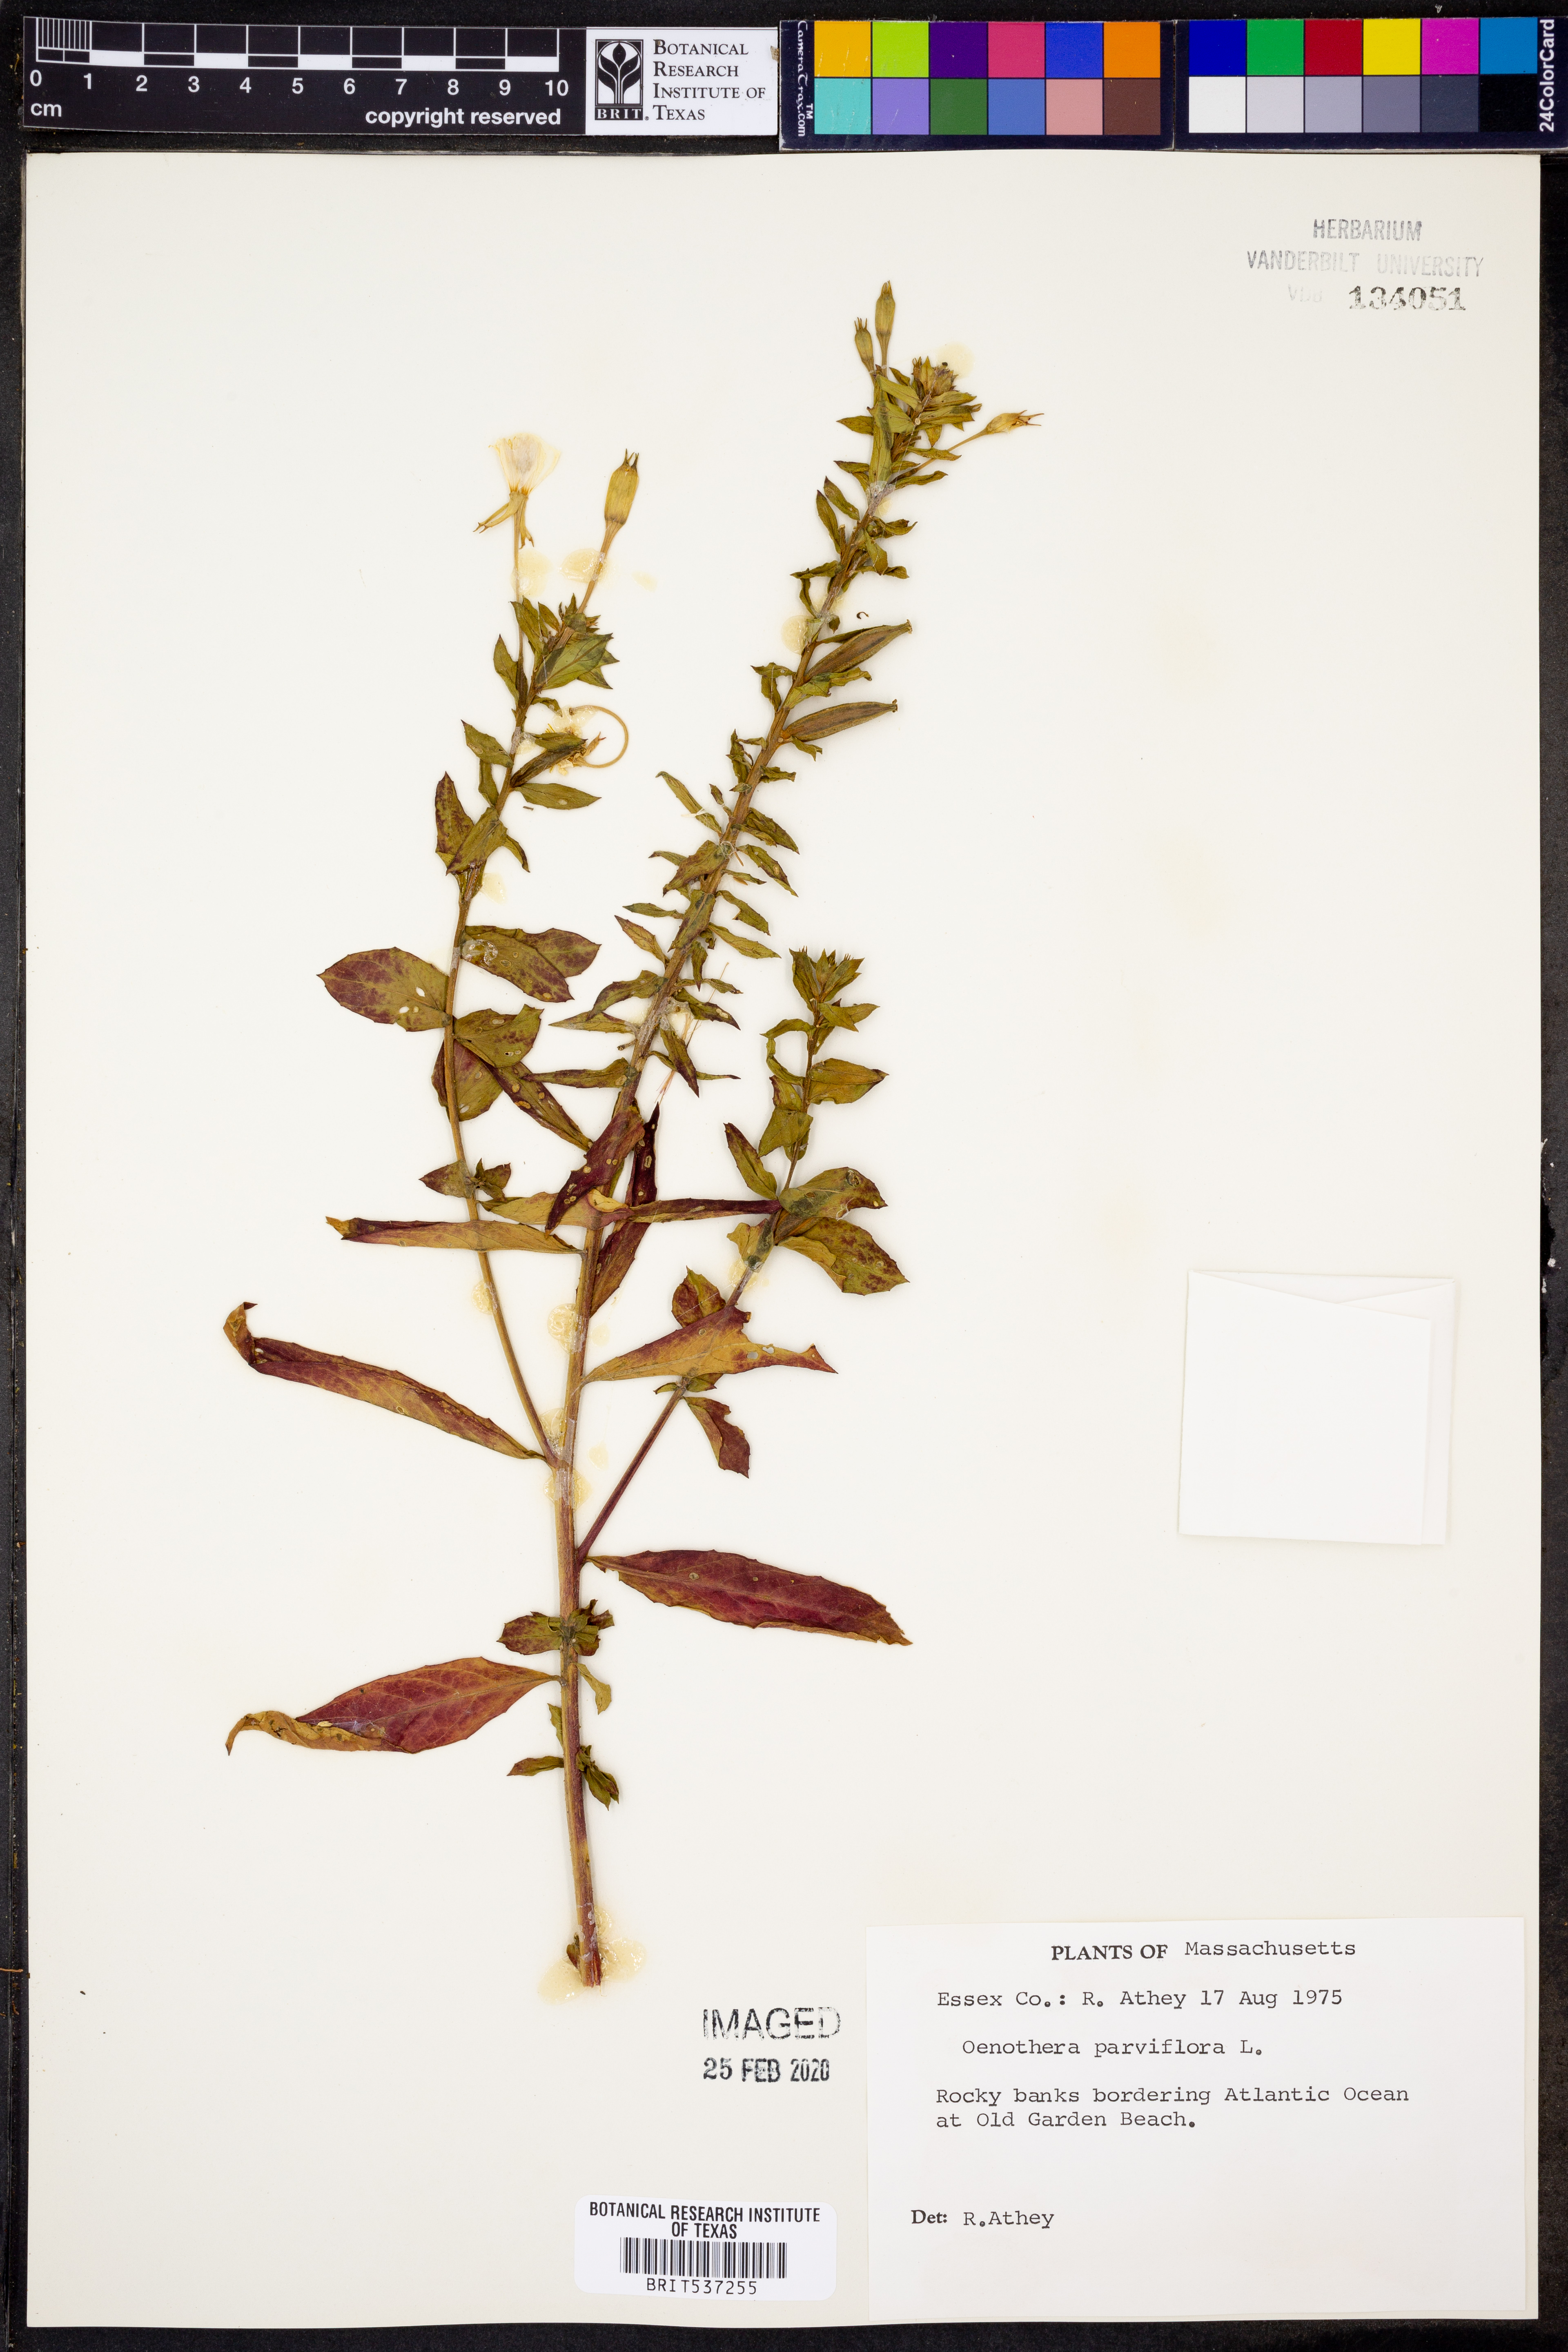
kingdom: Plantae
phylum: Tracheophyta
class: Magnoliopsida
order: Myrtales
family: Onagraceae
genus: Oenothera
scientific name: Oenothera parviflora
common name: Least evening-primrose
